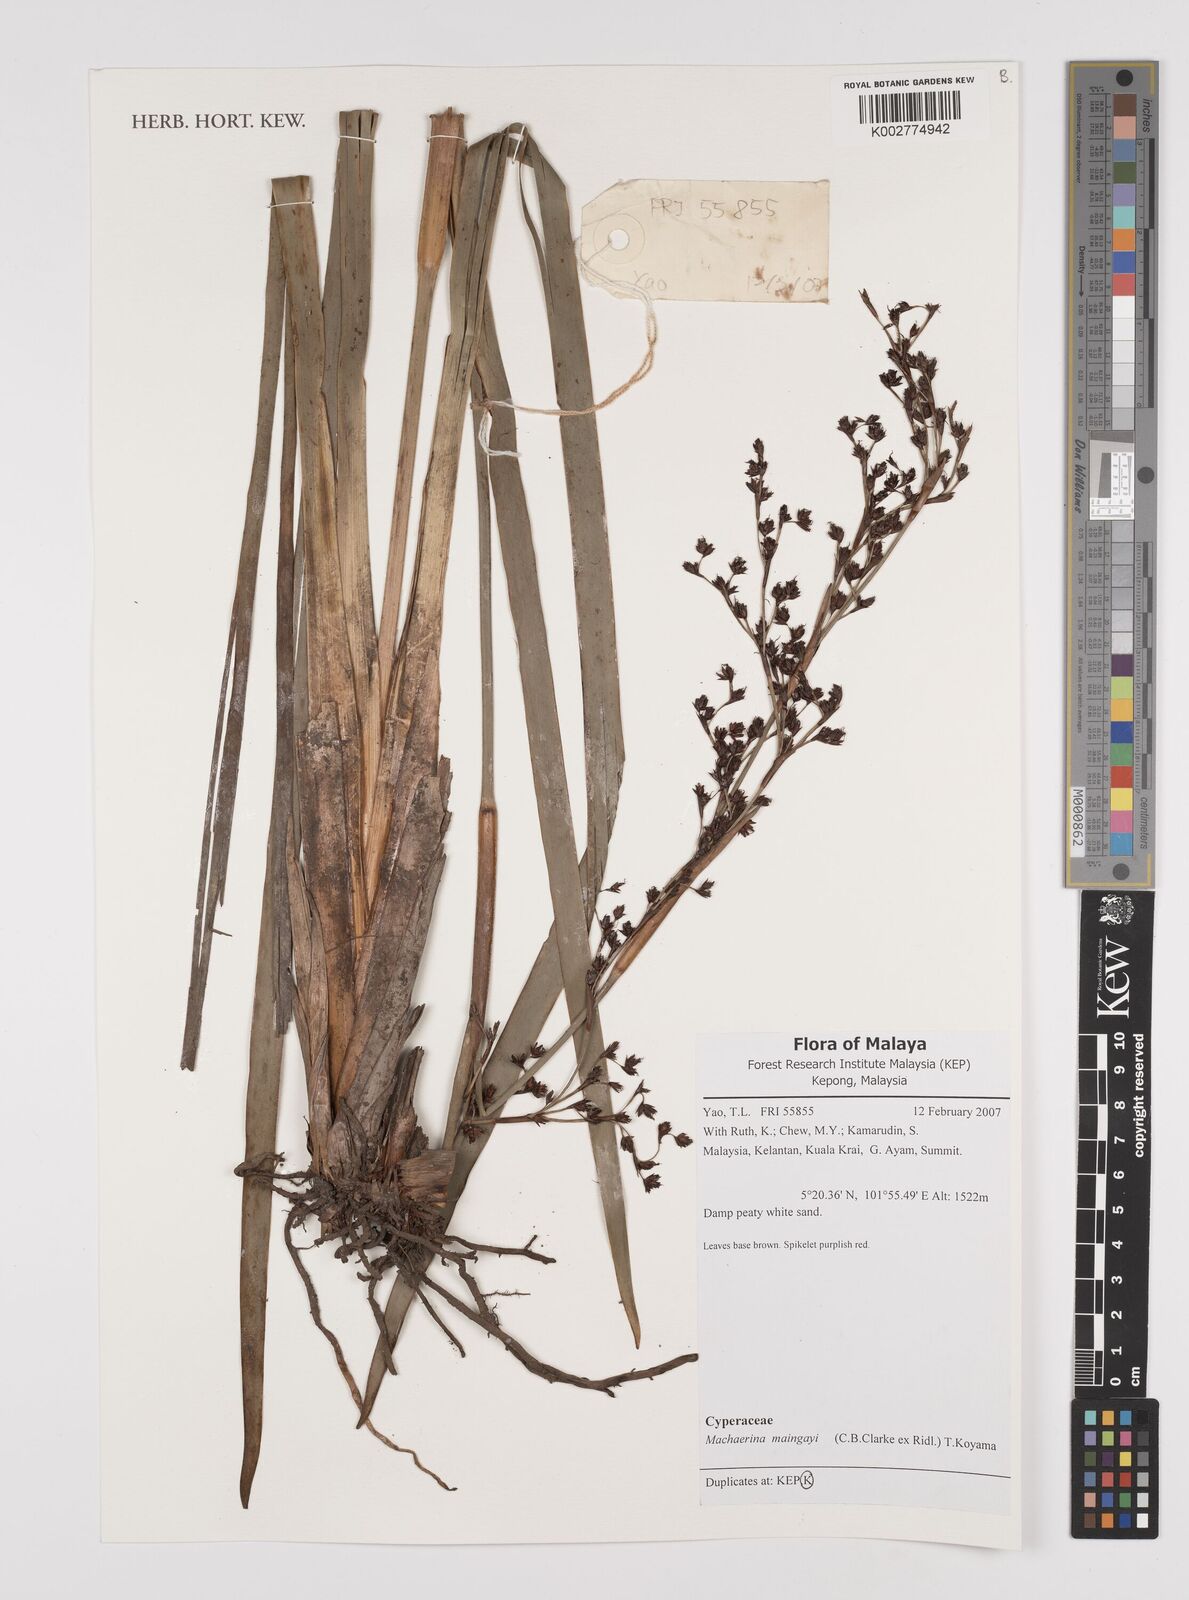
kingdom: Plantae
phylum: Tracheophyta
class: Liliopsida
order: Poales
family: Cyperaceae
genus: Machaerina
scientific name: Machaerina maingayi
